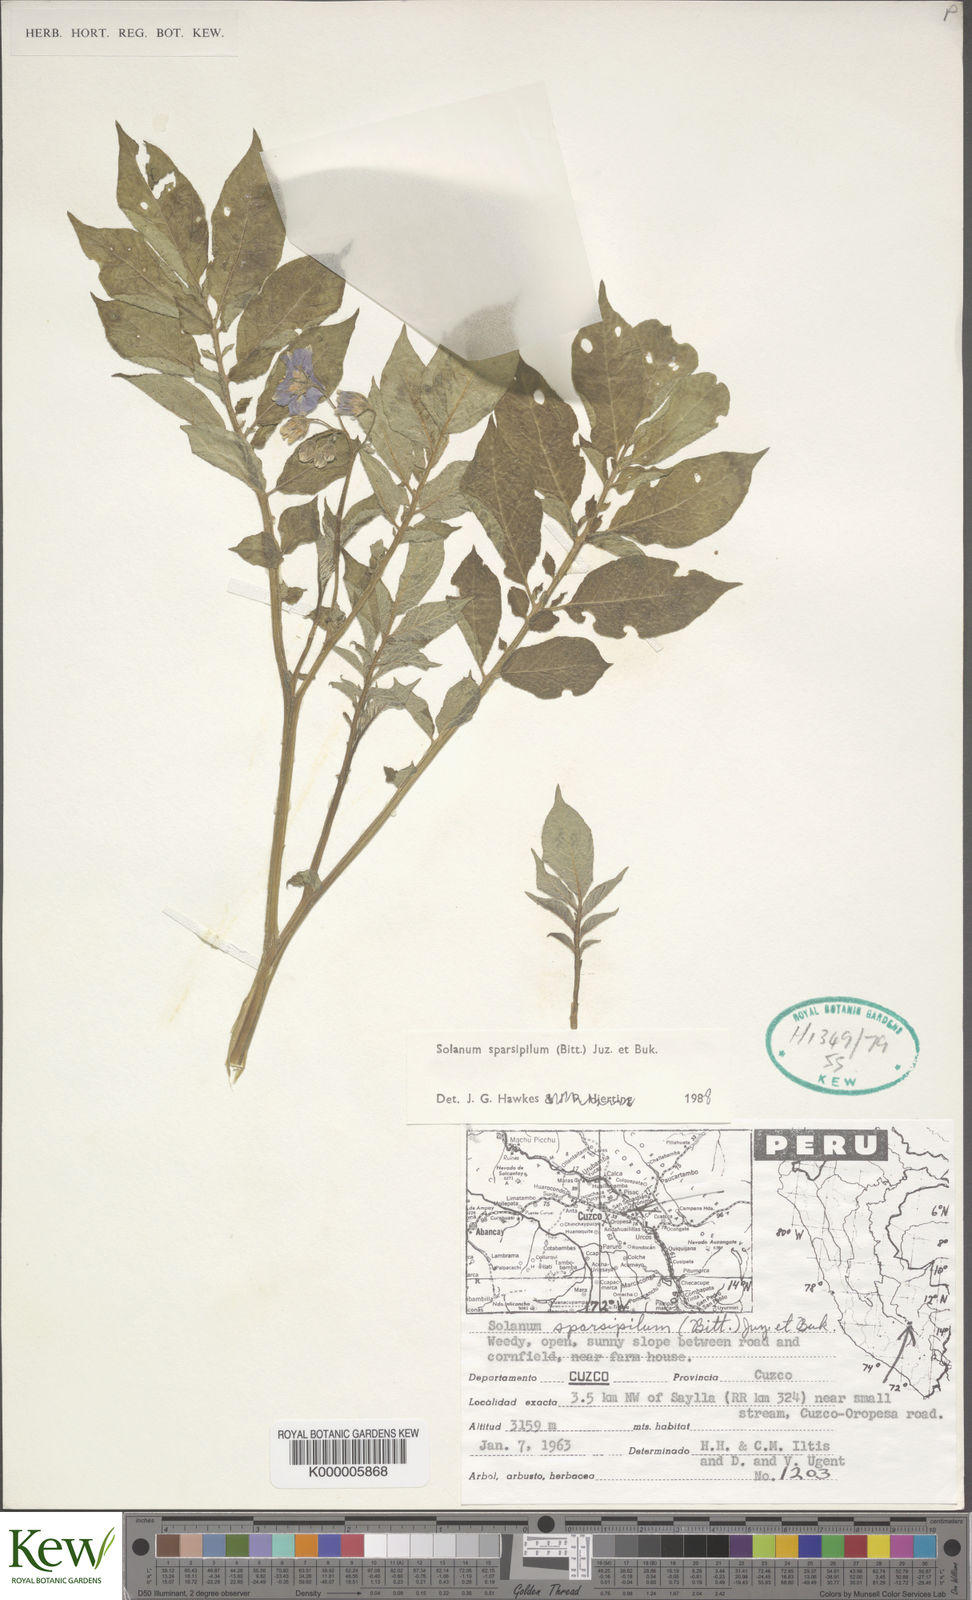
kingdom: Plantae
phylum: Tracheophyta
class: Magnoliopsida
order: Solanales
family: Solanaceae
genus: Solanum
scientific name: Solanum candolleanum
